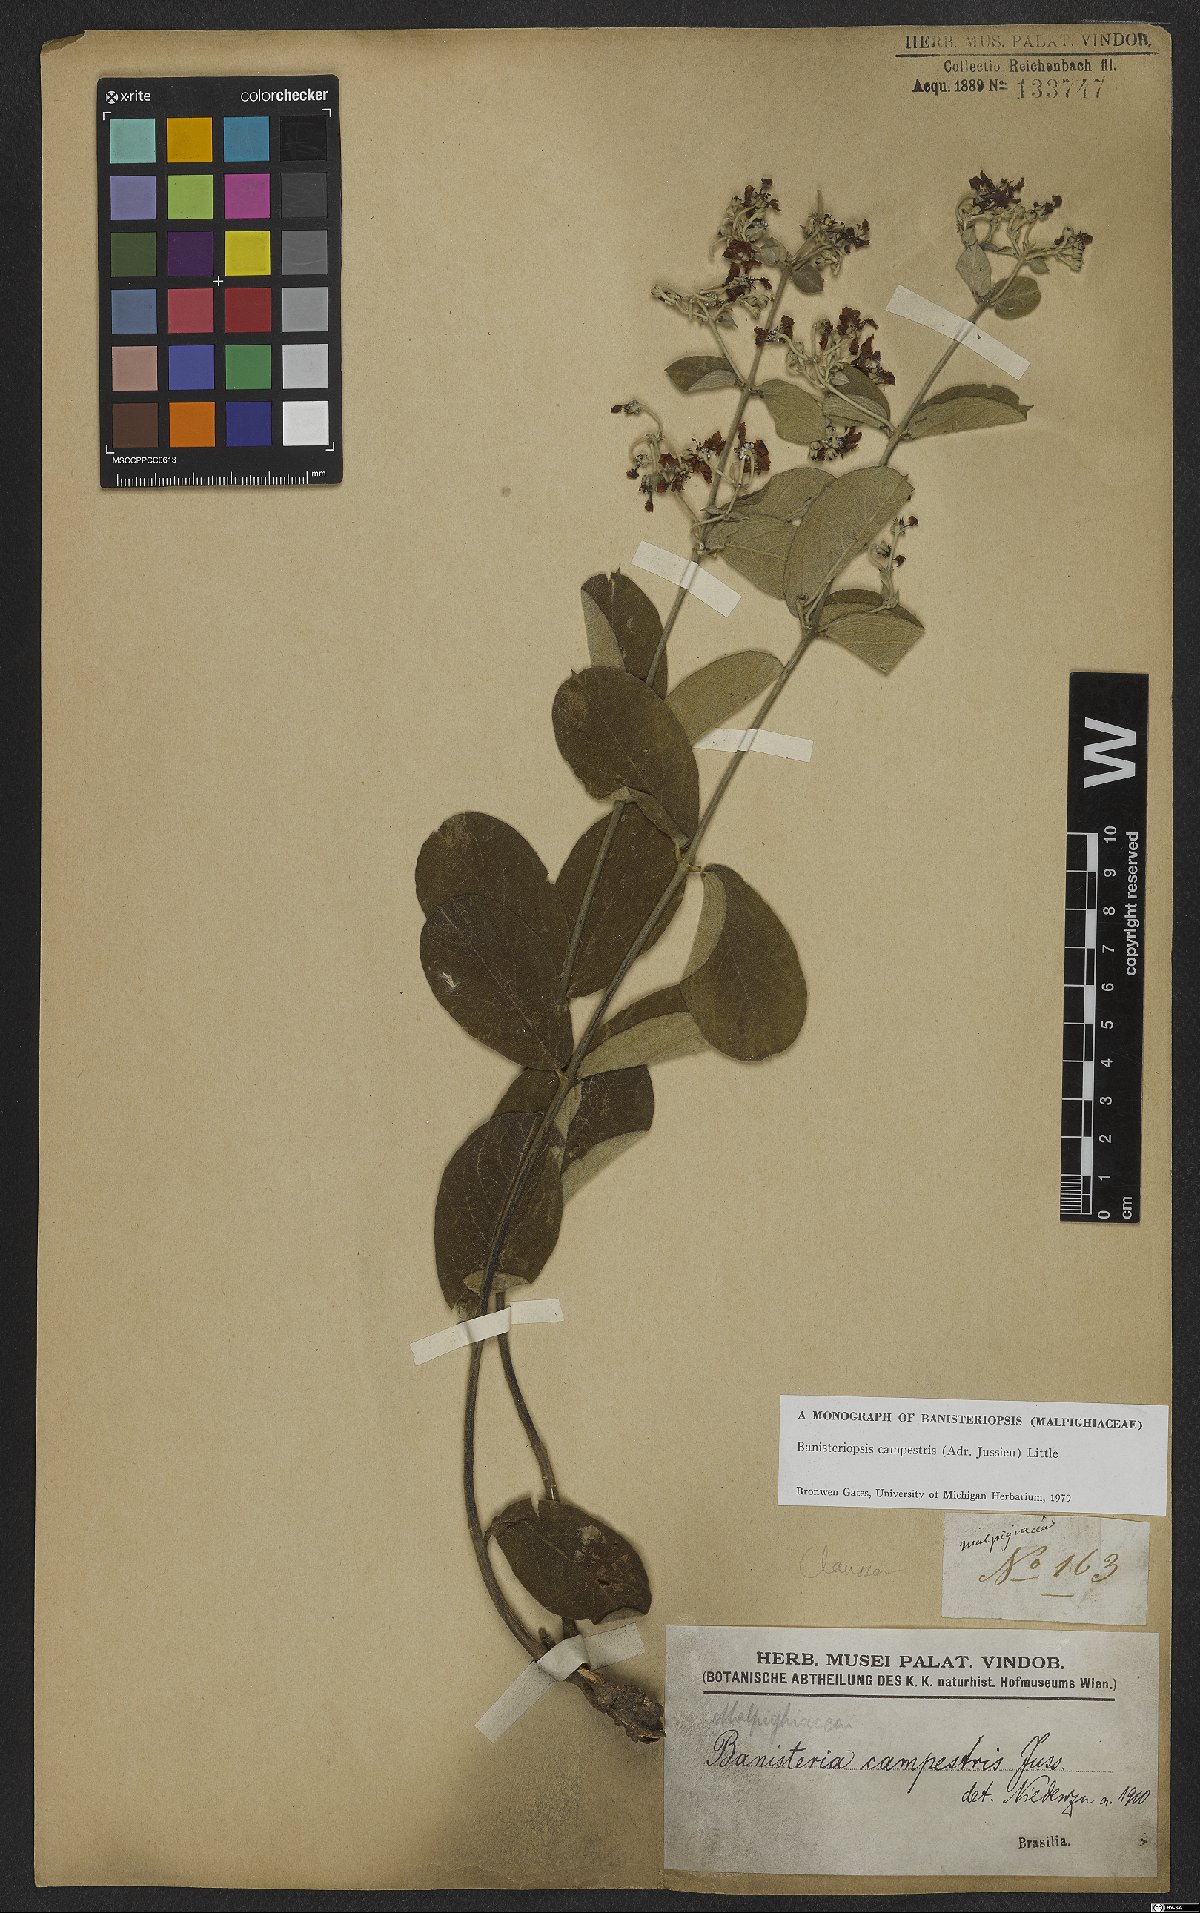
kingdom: Plantae
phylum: Tracheophyta
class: Magnoliopsida
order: Malpighiales
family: Malpighiaceae
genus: Banisteriopsis
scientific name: Banisteriopsis campestris
